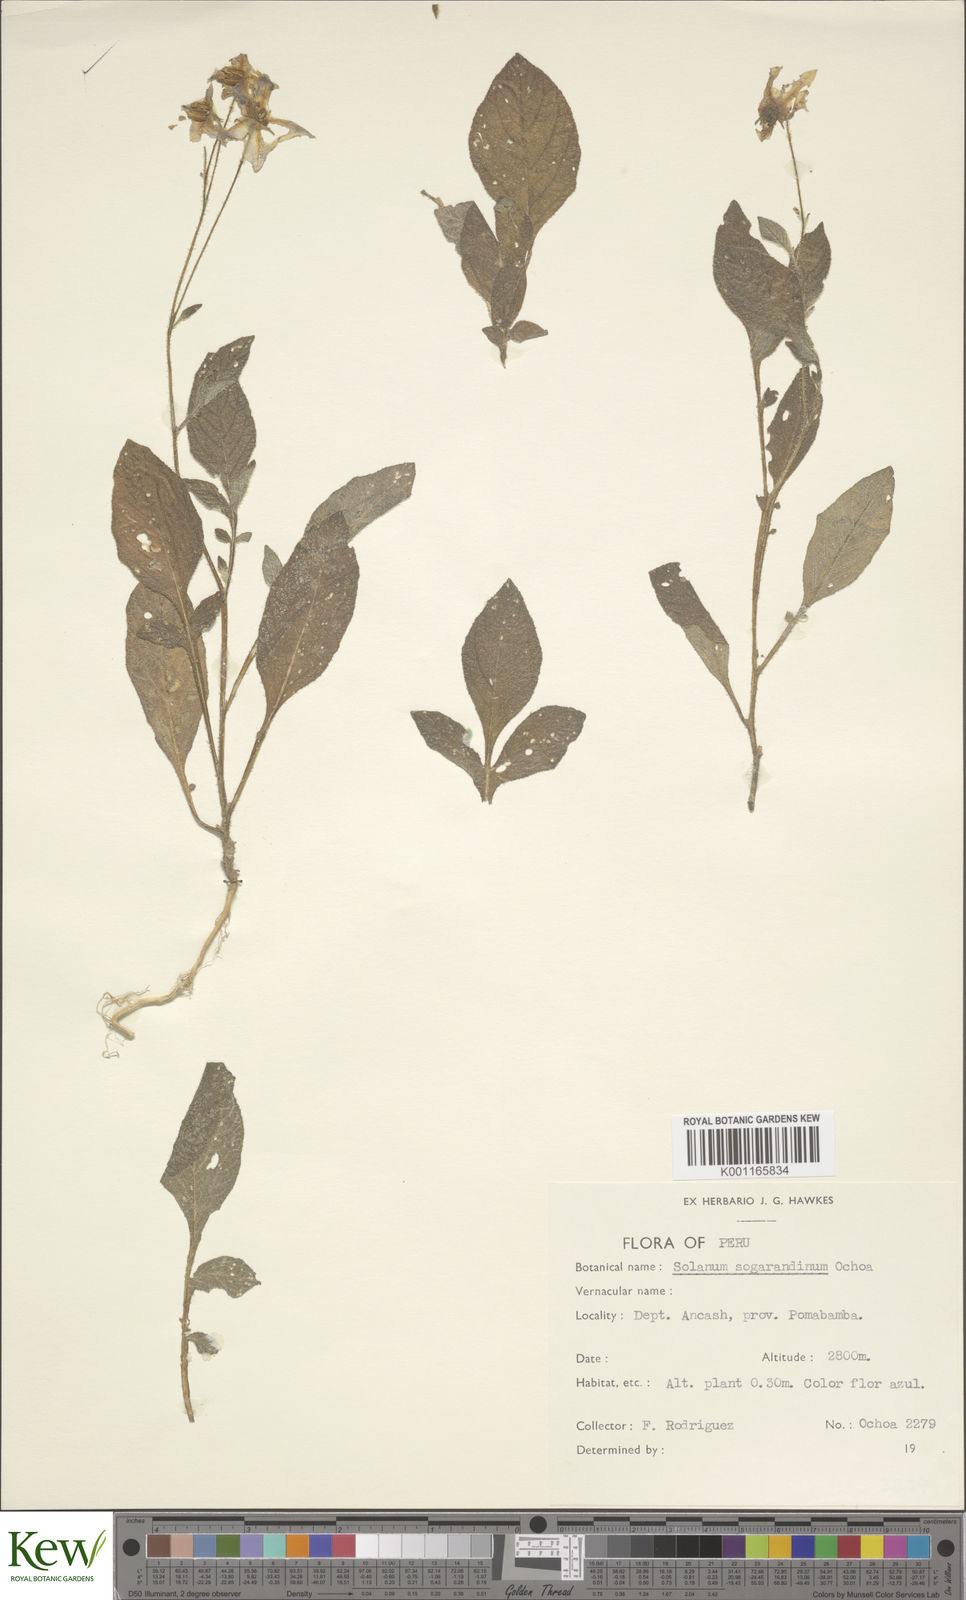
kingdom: Plantae
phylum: Tracheophyta
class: Magnoliopsida
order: Solanales
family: Solanaceae
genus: Solanum
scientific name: Solanum sogarandinum
